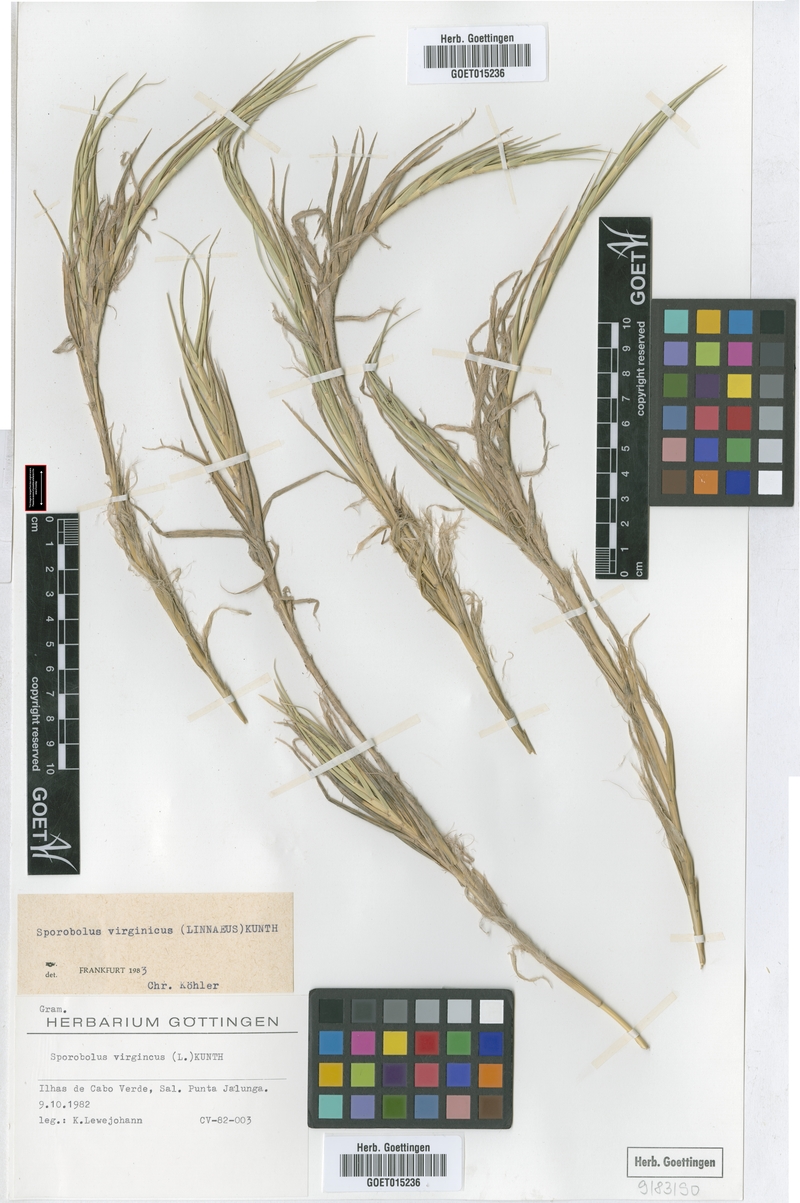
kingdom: Plantae
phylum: Tracheophyta
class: Liliopsida
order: Poales
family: Poaceae
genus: Sporobolus
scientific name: Sporobolus virginicus
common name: Beach dropseed
